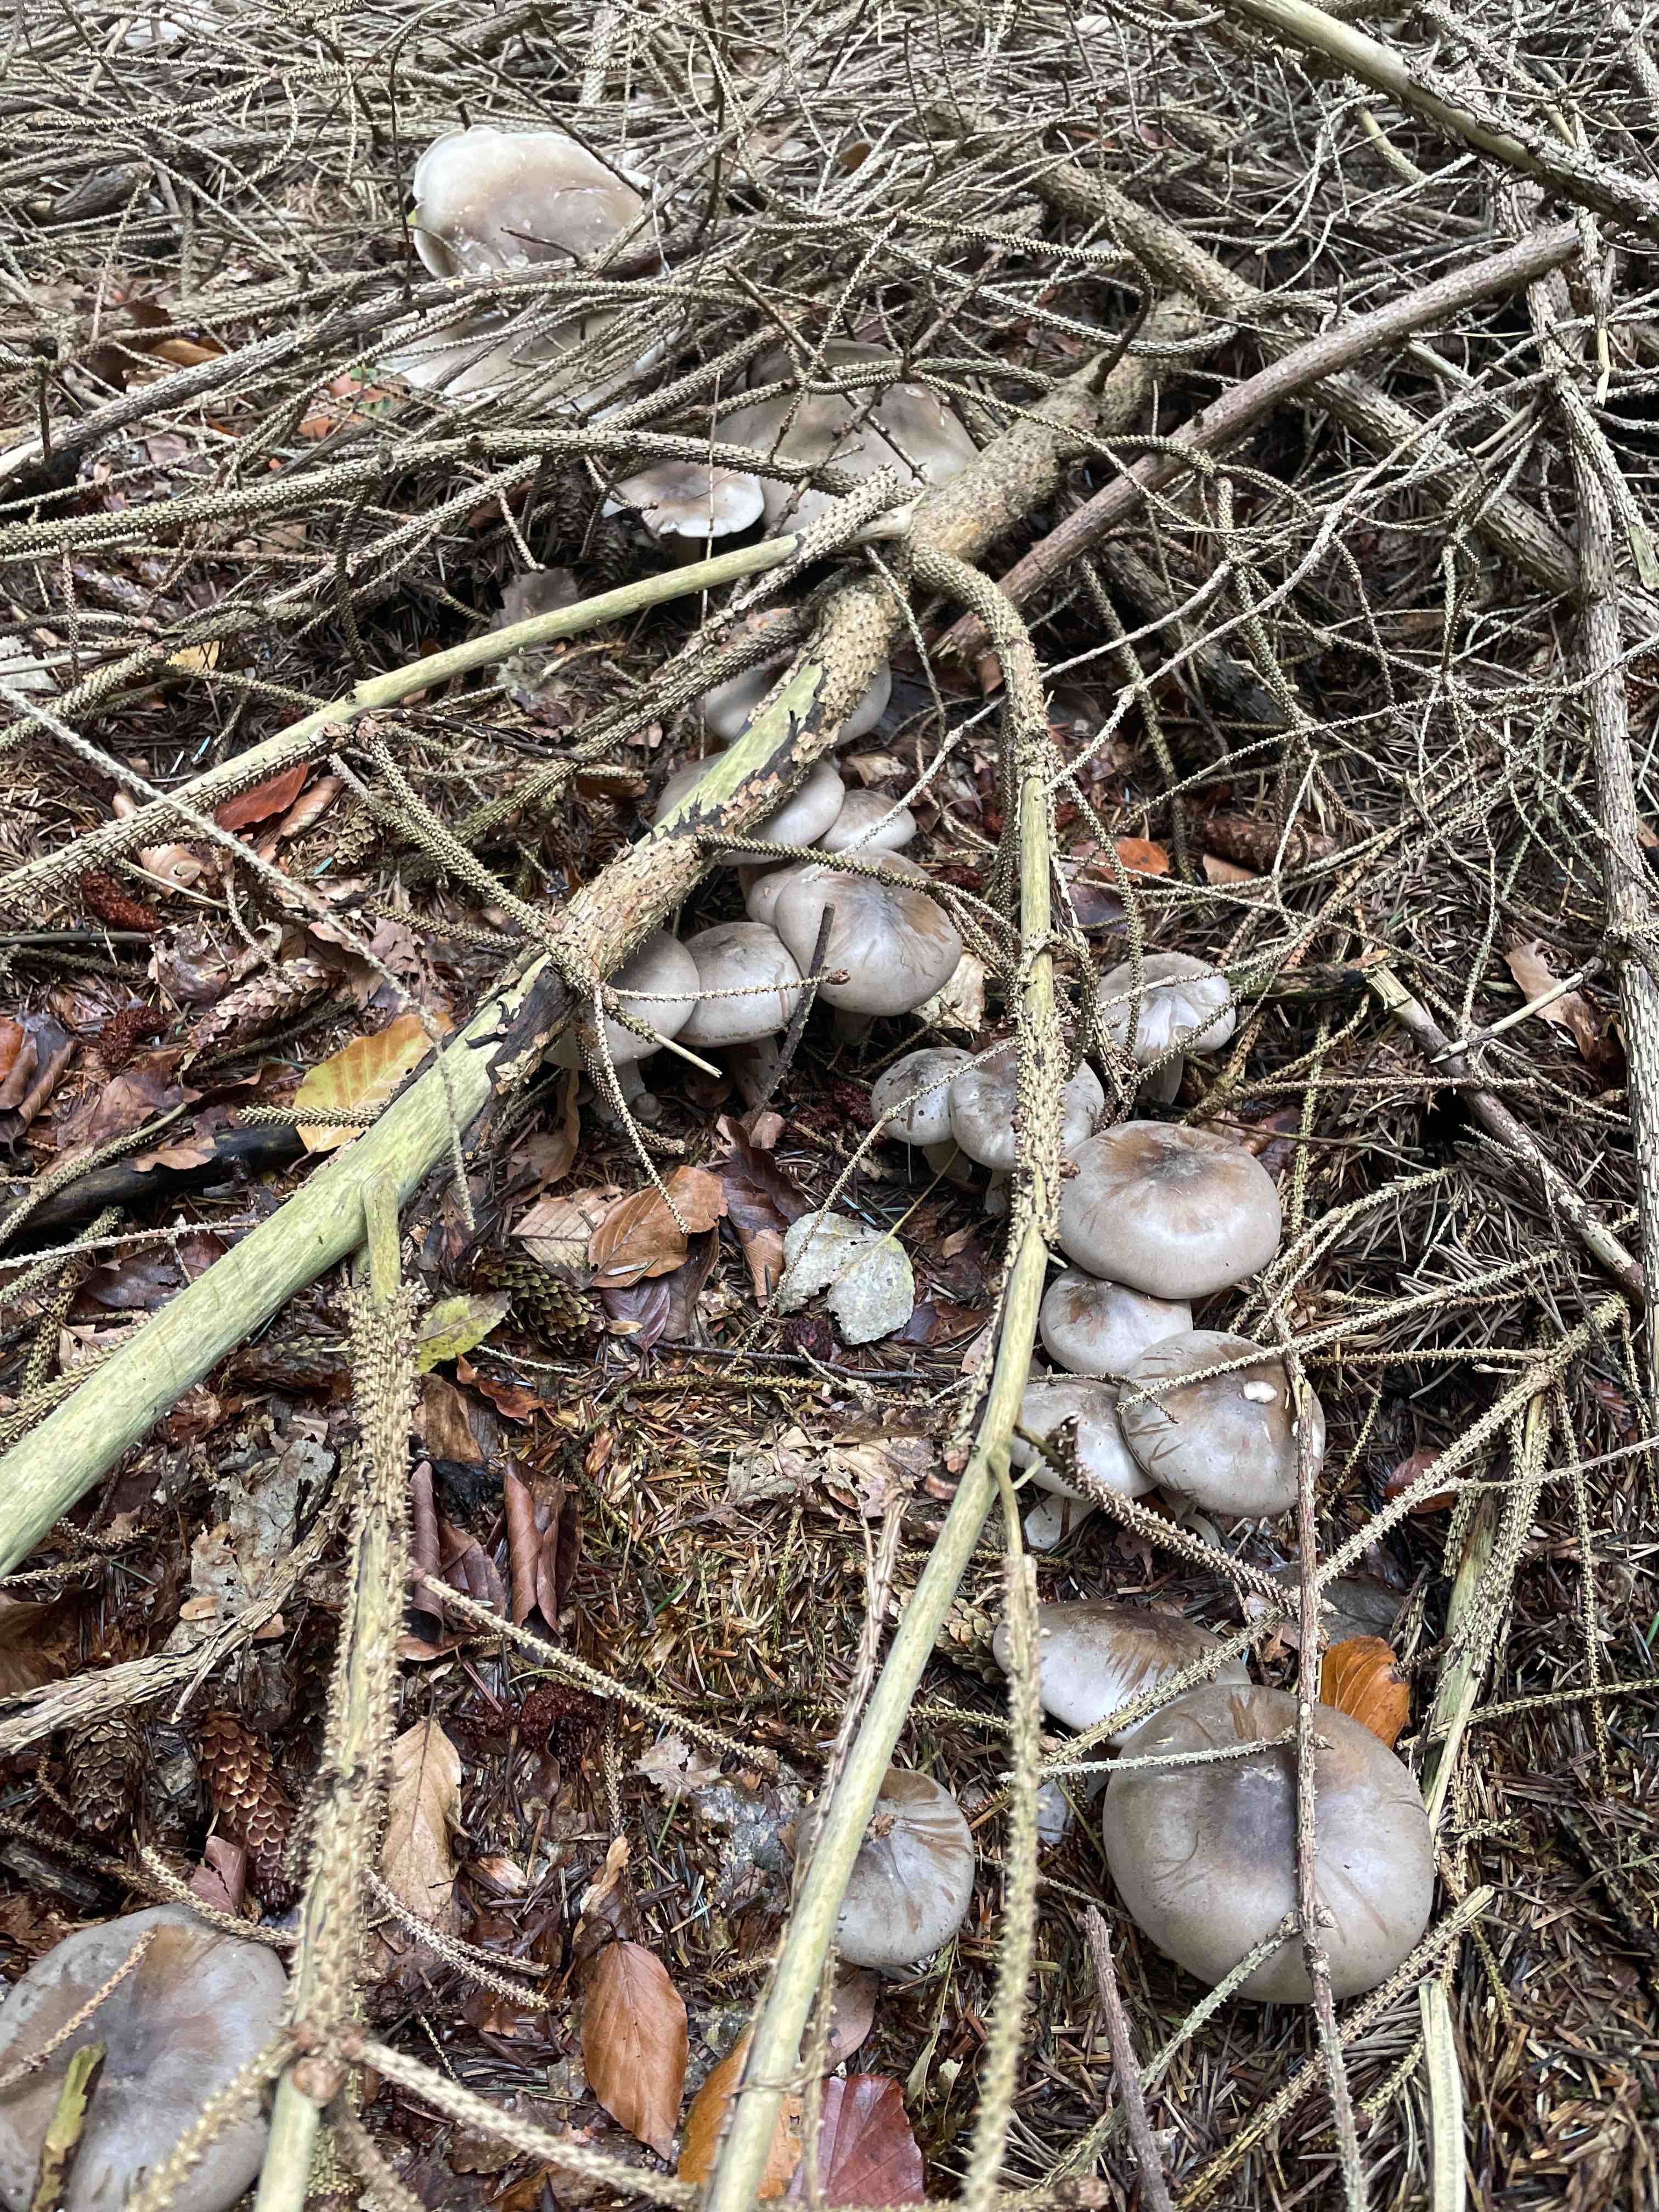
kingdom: Fungi
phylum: Basidiomycota
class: Agaricomycetes
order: Agaricales
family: Tricholomataceae
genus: Clitocybe
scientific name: Clitocybe nebularis
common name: tåge-tragthat
